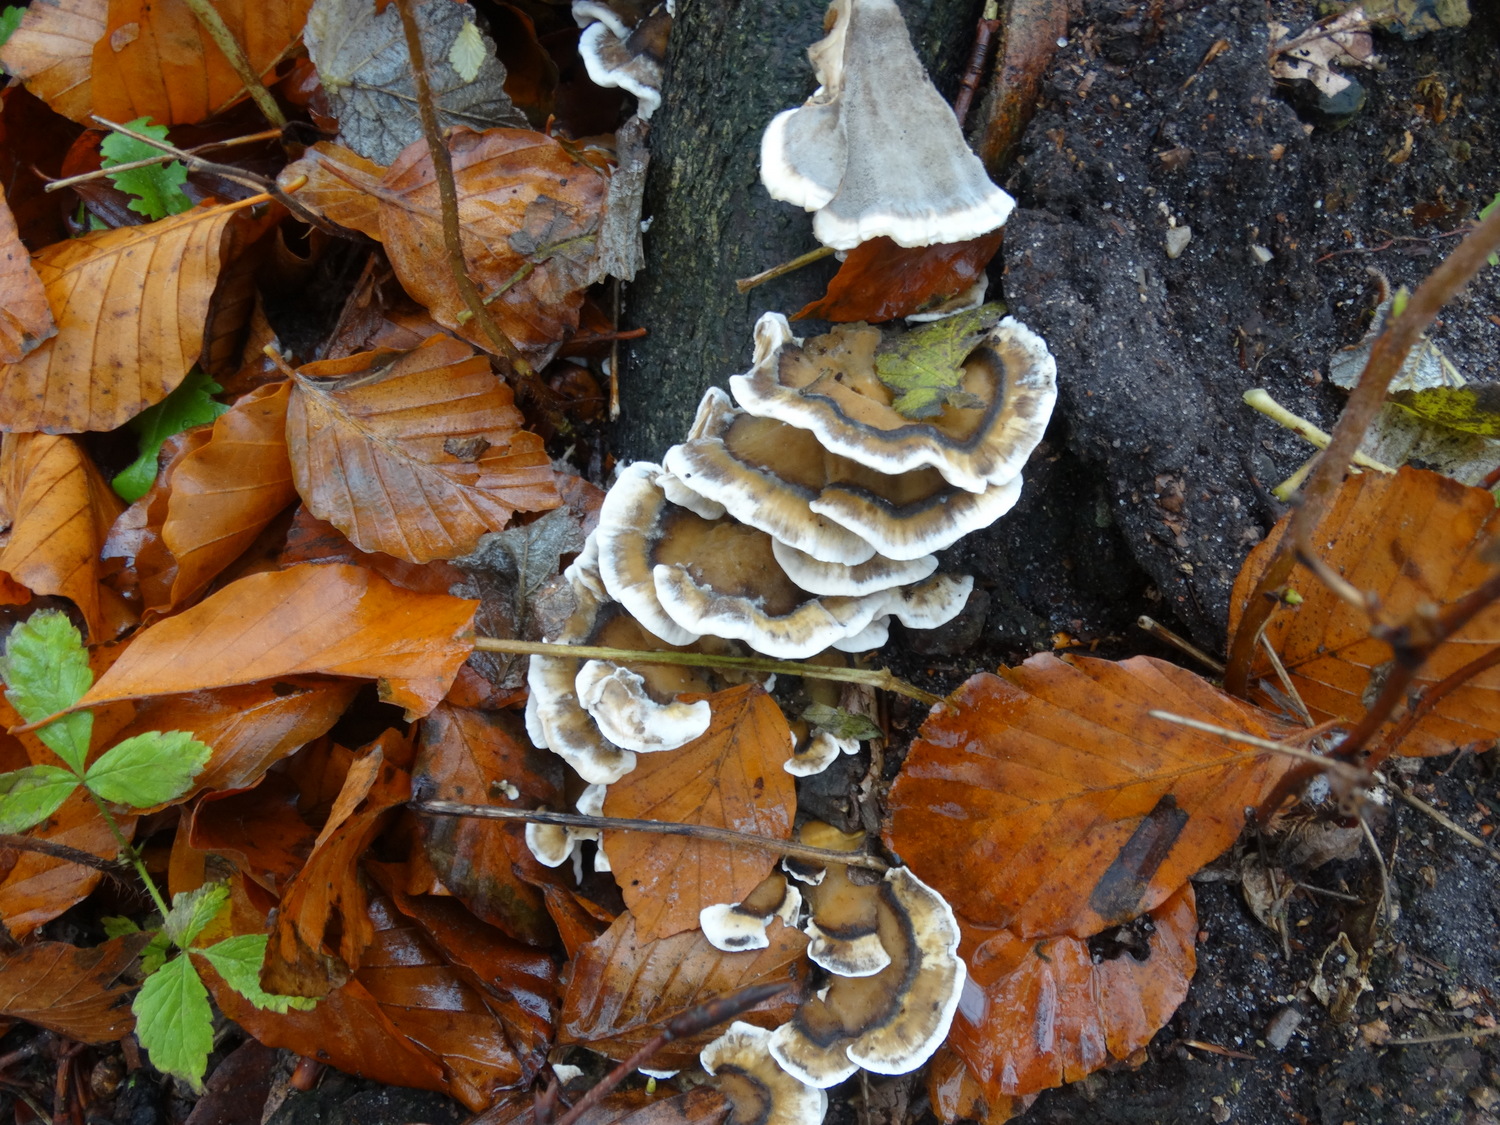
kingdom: Fungi
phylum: Basidiomycota
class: Agaricomycetes
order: Polyporales
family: Phanerochaetaceae
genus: Bjerkandera
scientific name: Bjerkandera adusta
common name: sveden sodporesvamp
